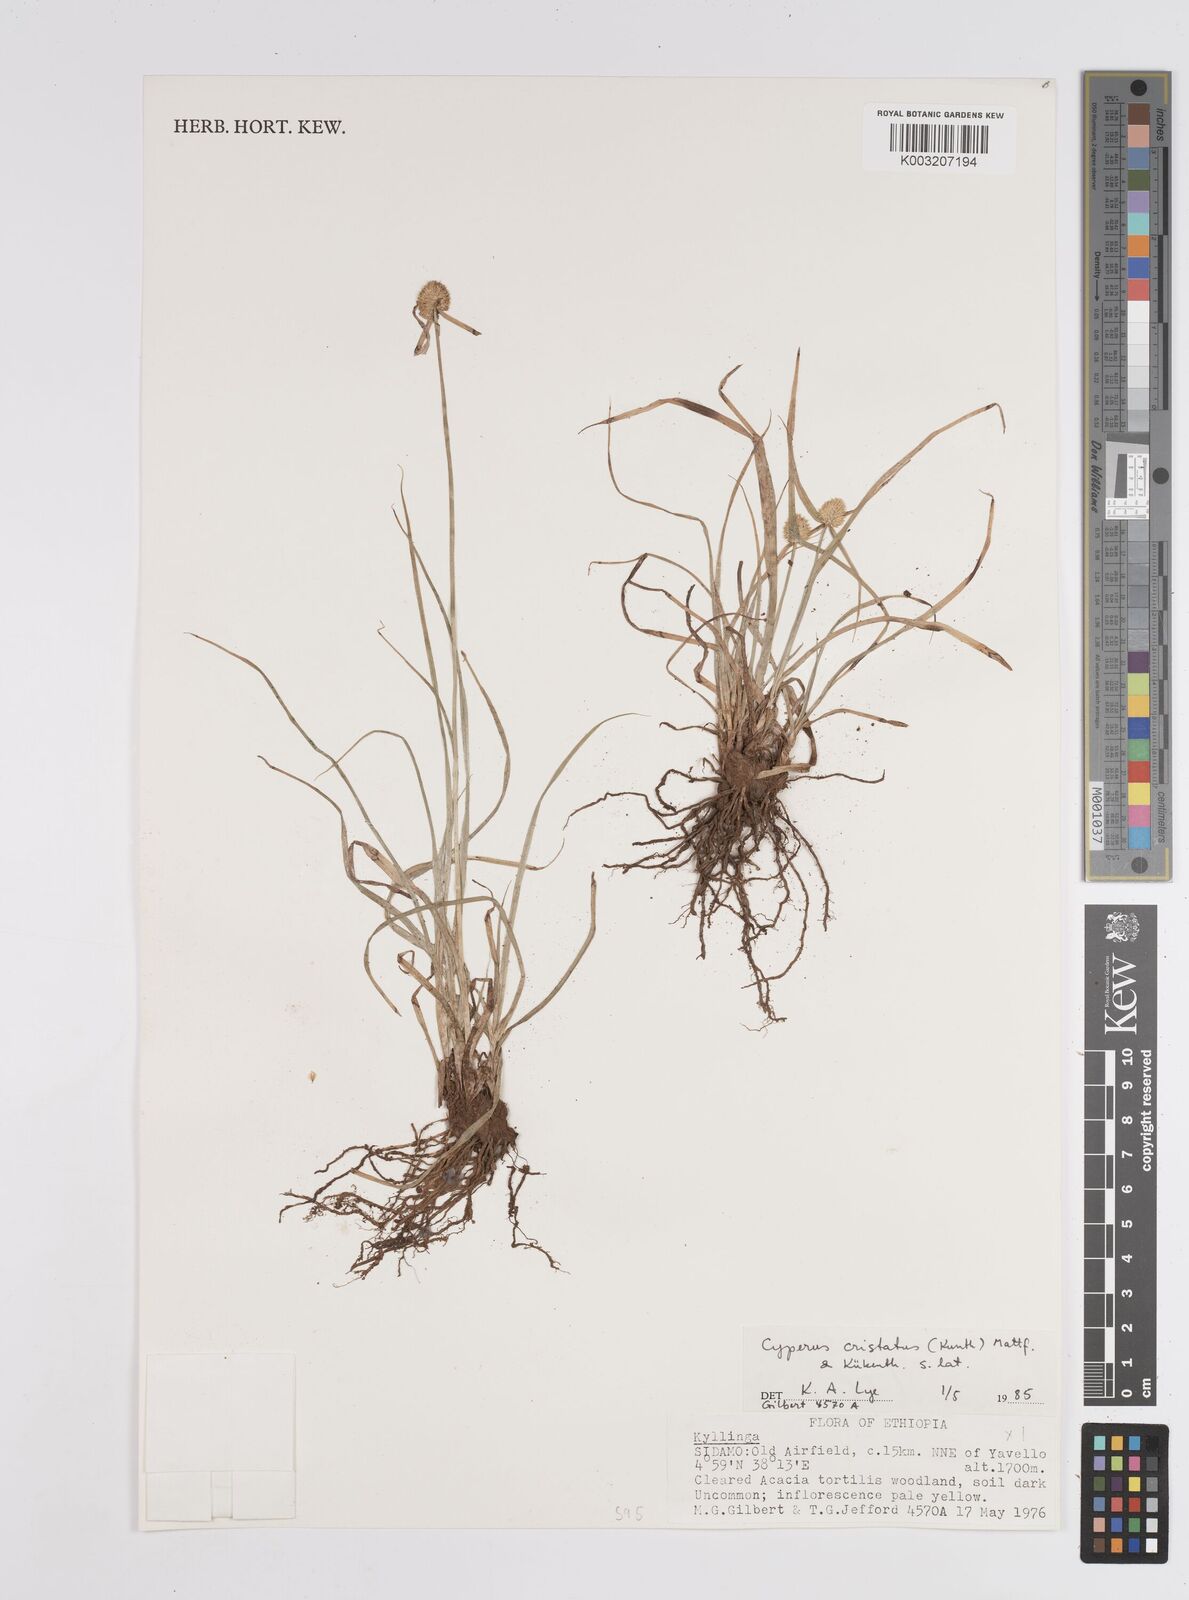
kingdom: Plantae
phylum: Tracheophyta
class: Liliopsida
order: Poales
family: Cyperaceae
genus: Cyperus
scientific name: Cyperus
